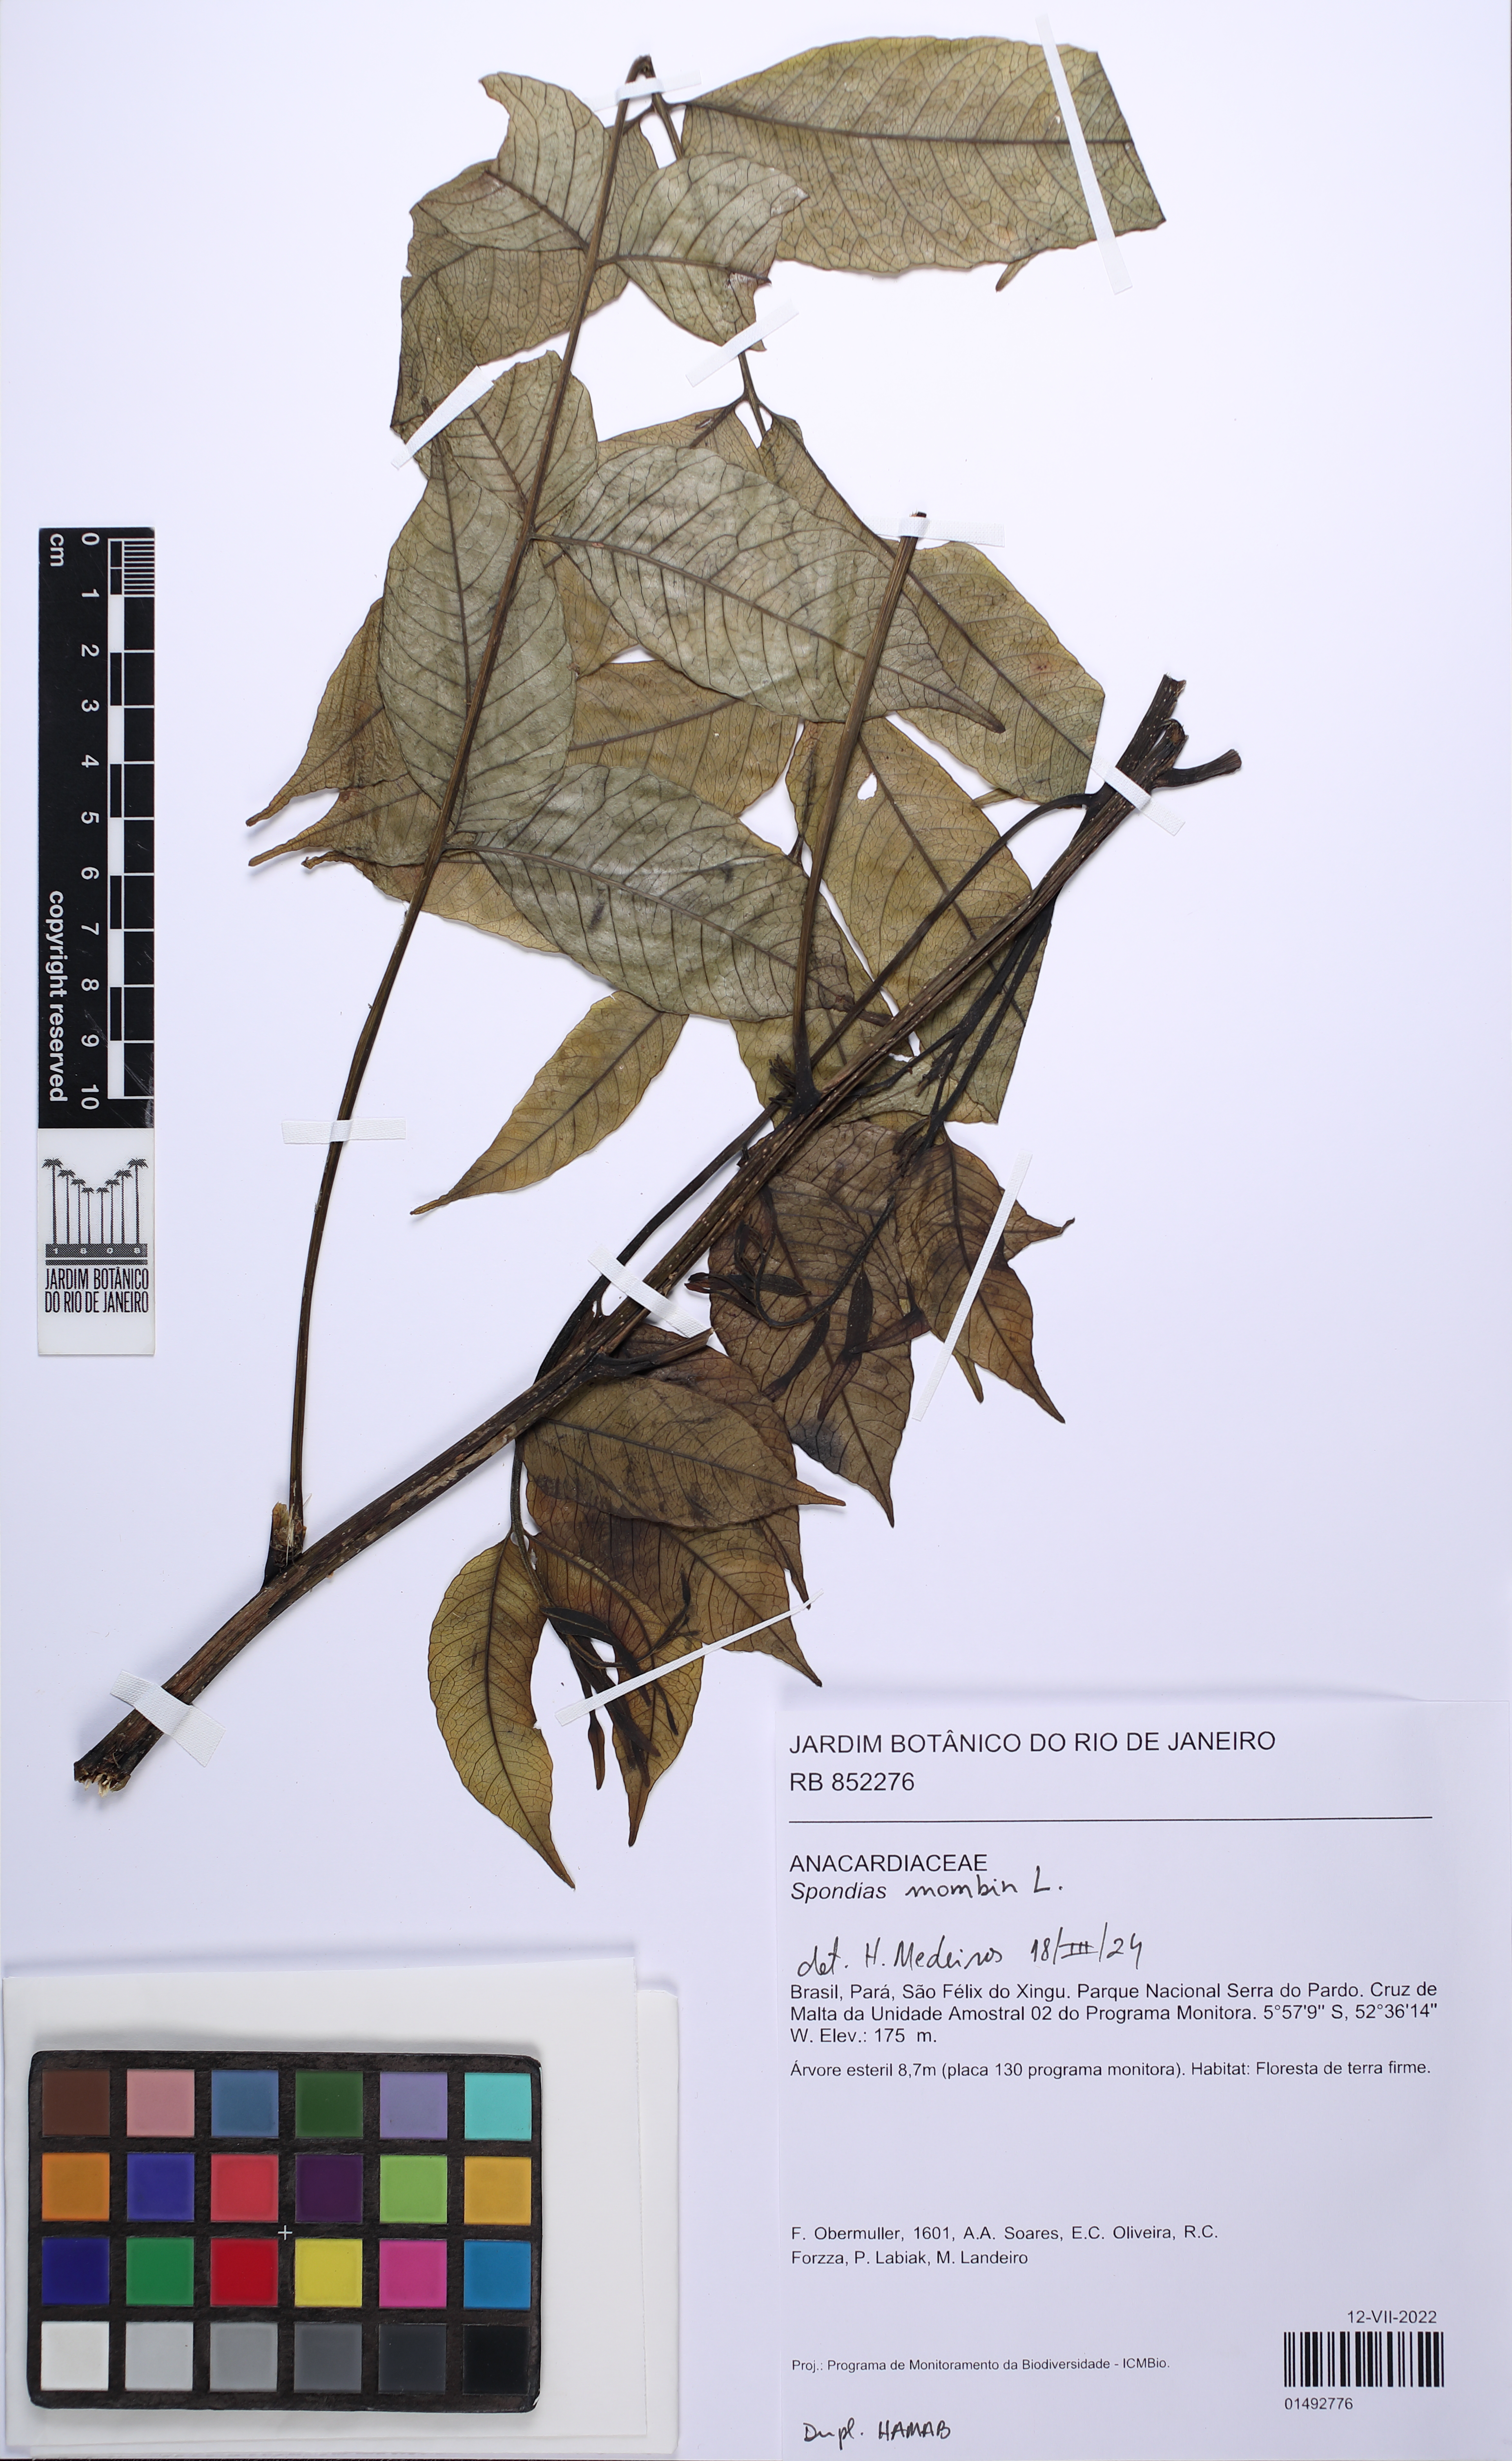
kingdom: Plantae
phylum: Tracheophyta
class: Magnoliopsida
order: Sapindales
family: Anacardiaceae
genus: Spondias
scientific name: Spondias mombin
